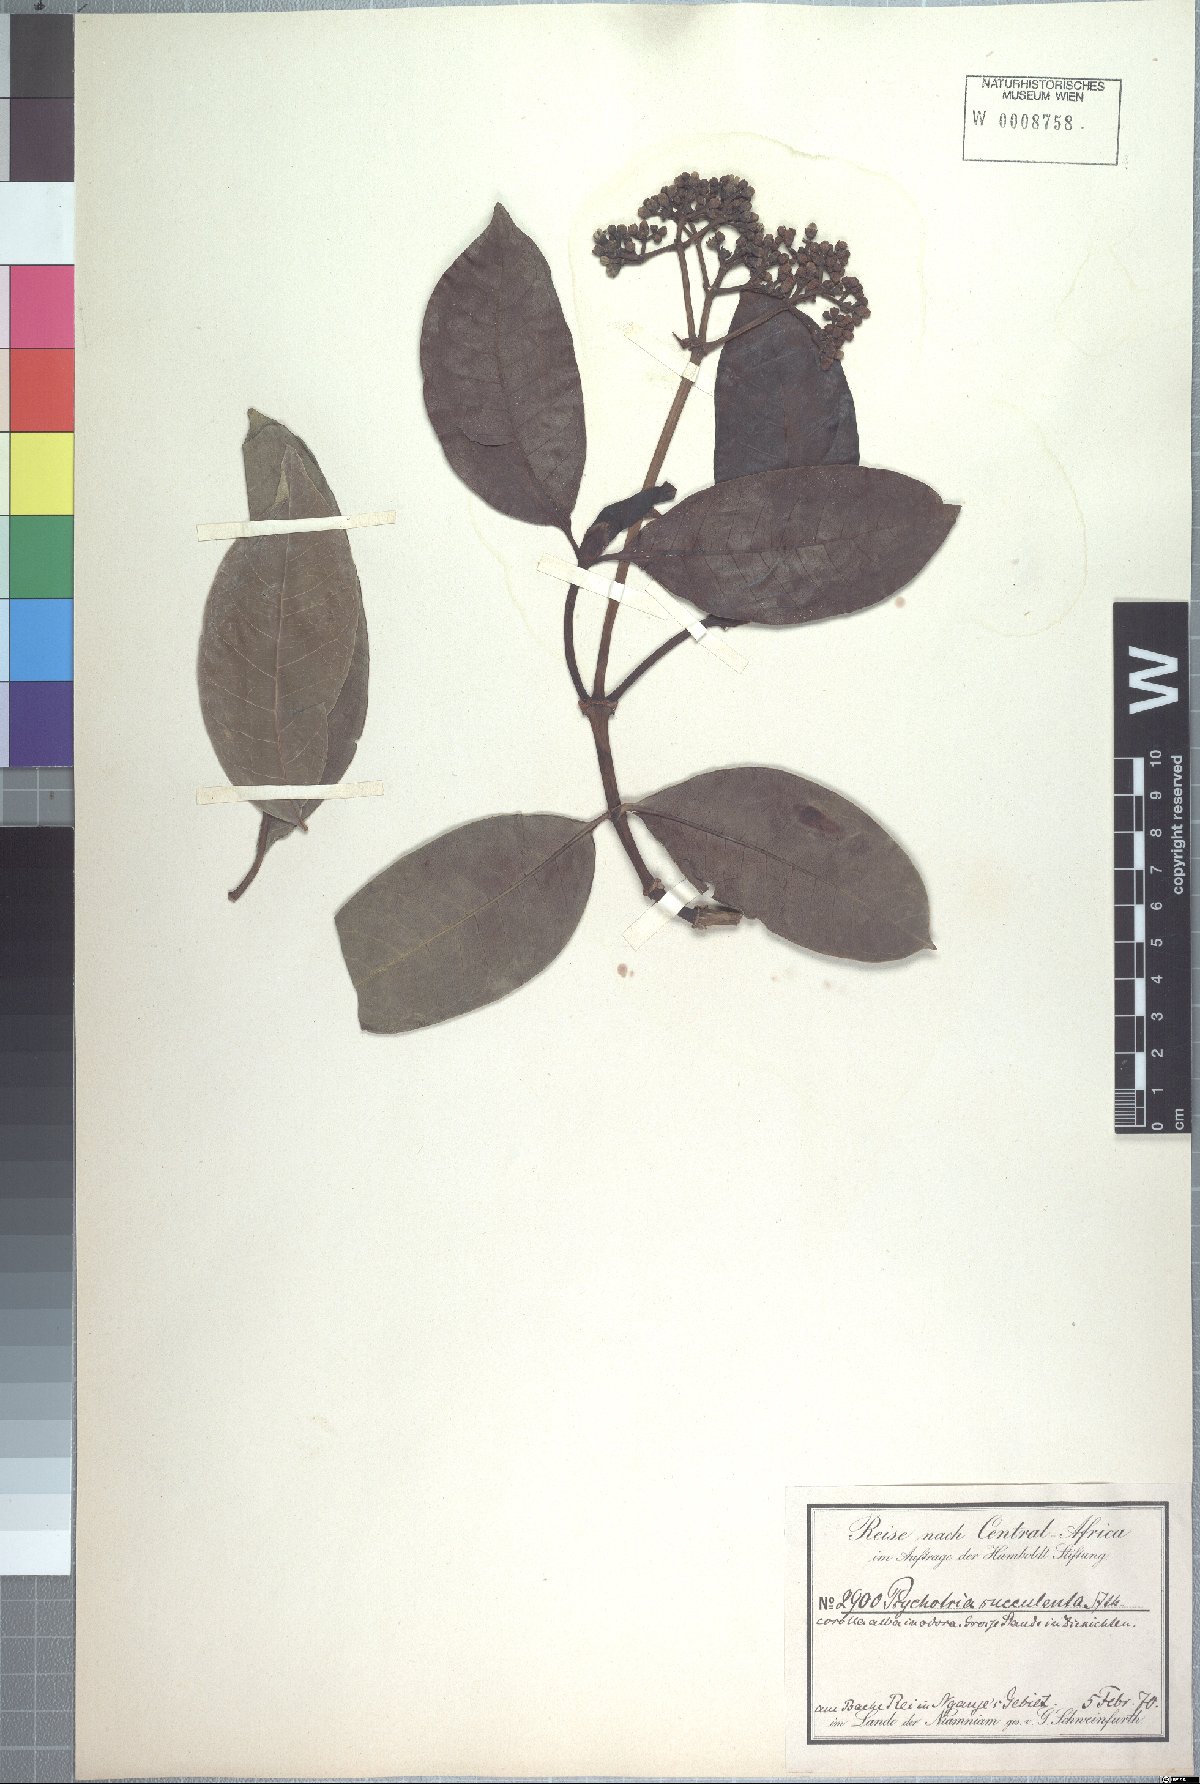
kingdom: Plantae
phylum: Tracheophyta
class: Magnoliopsida
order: Gentianales
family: Rubiaceae
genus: Psychotria
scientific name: Psychotria succulenta
